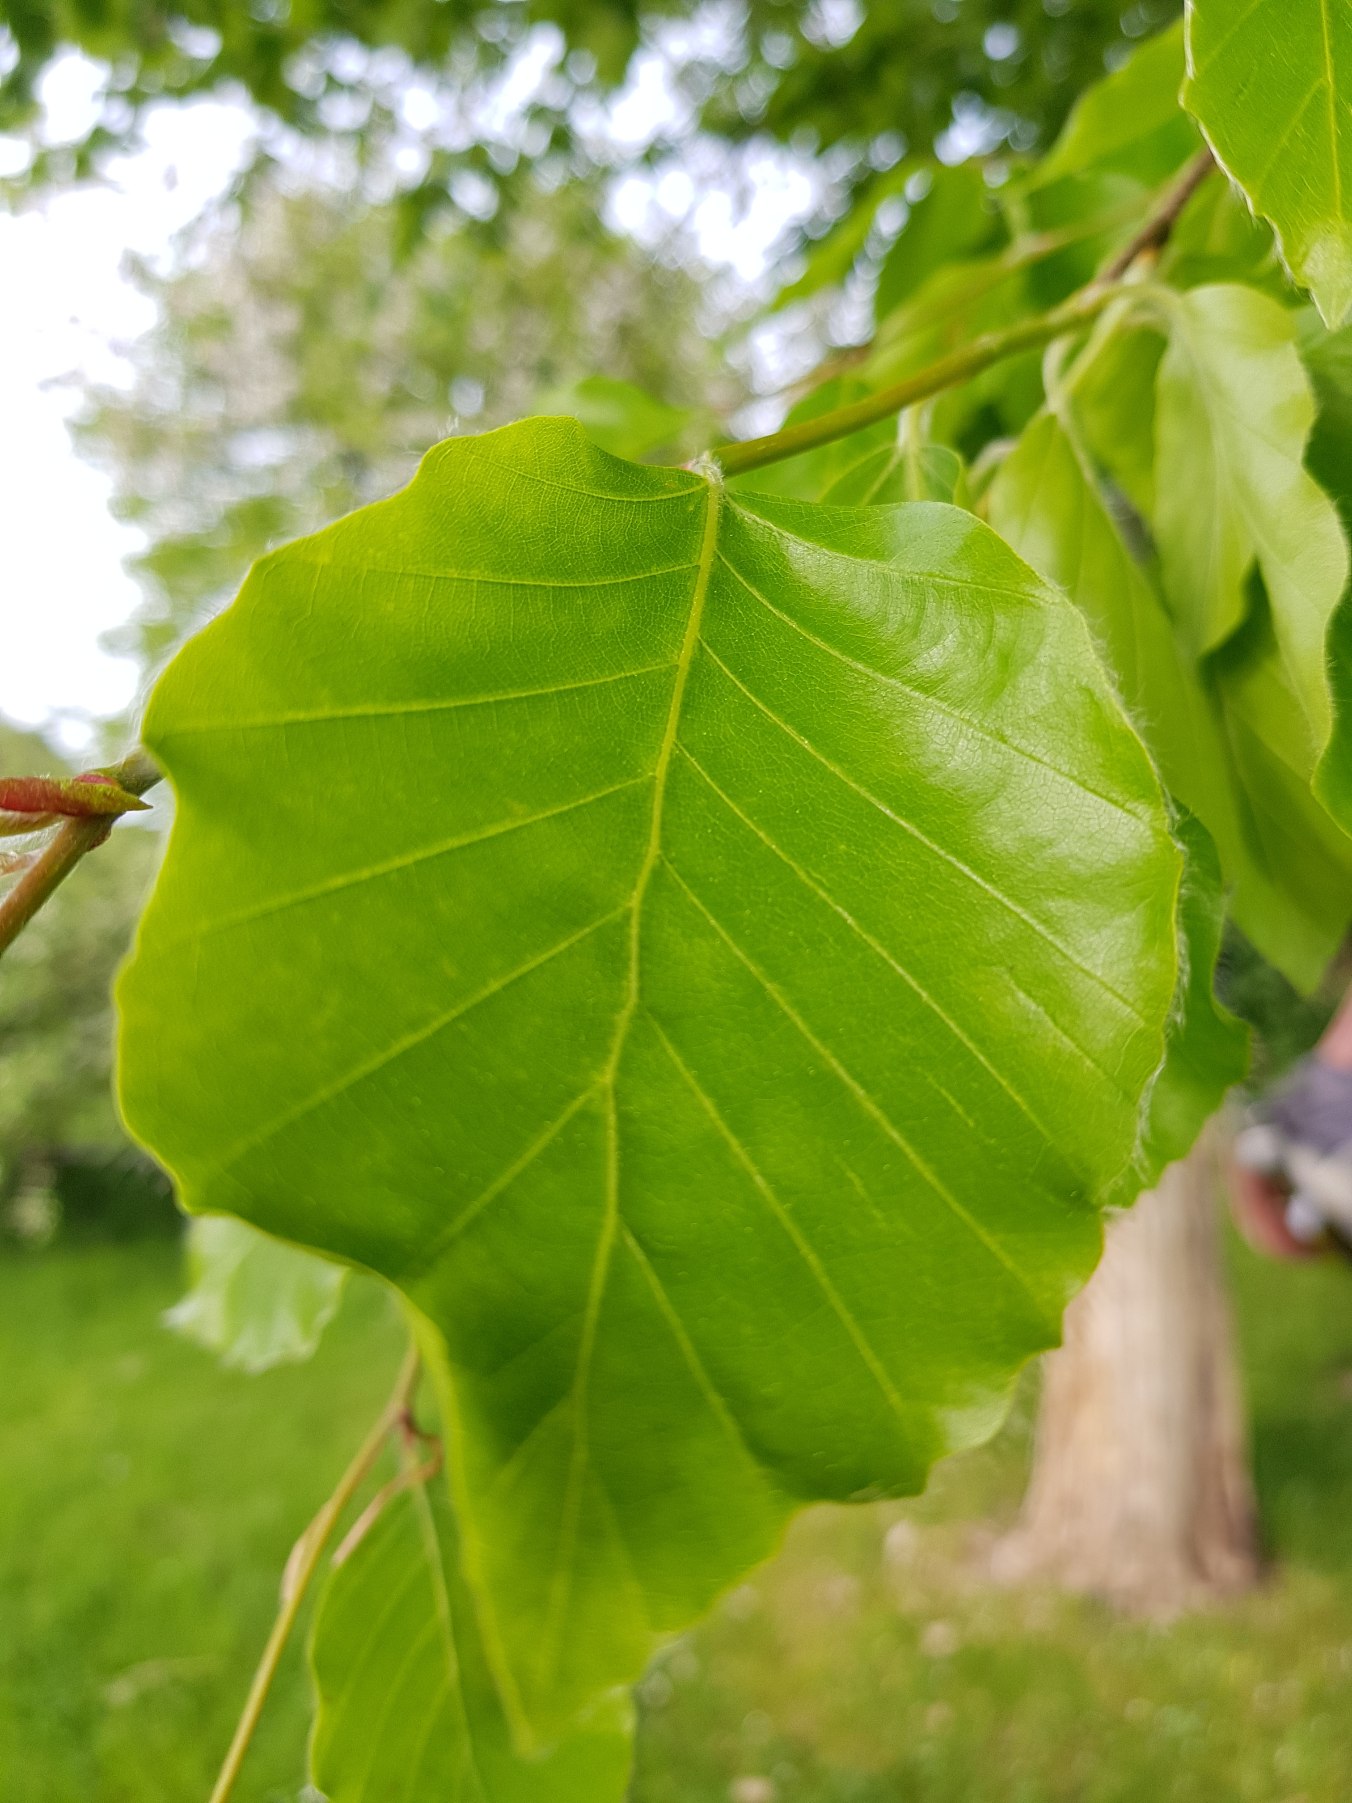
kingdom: Plantae
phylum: Tracheophyta
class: Magnoliopsida
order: Fagales
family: Fagaceae
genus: Fagus
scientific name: Fagus sylvatica
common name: Bøg
